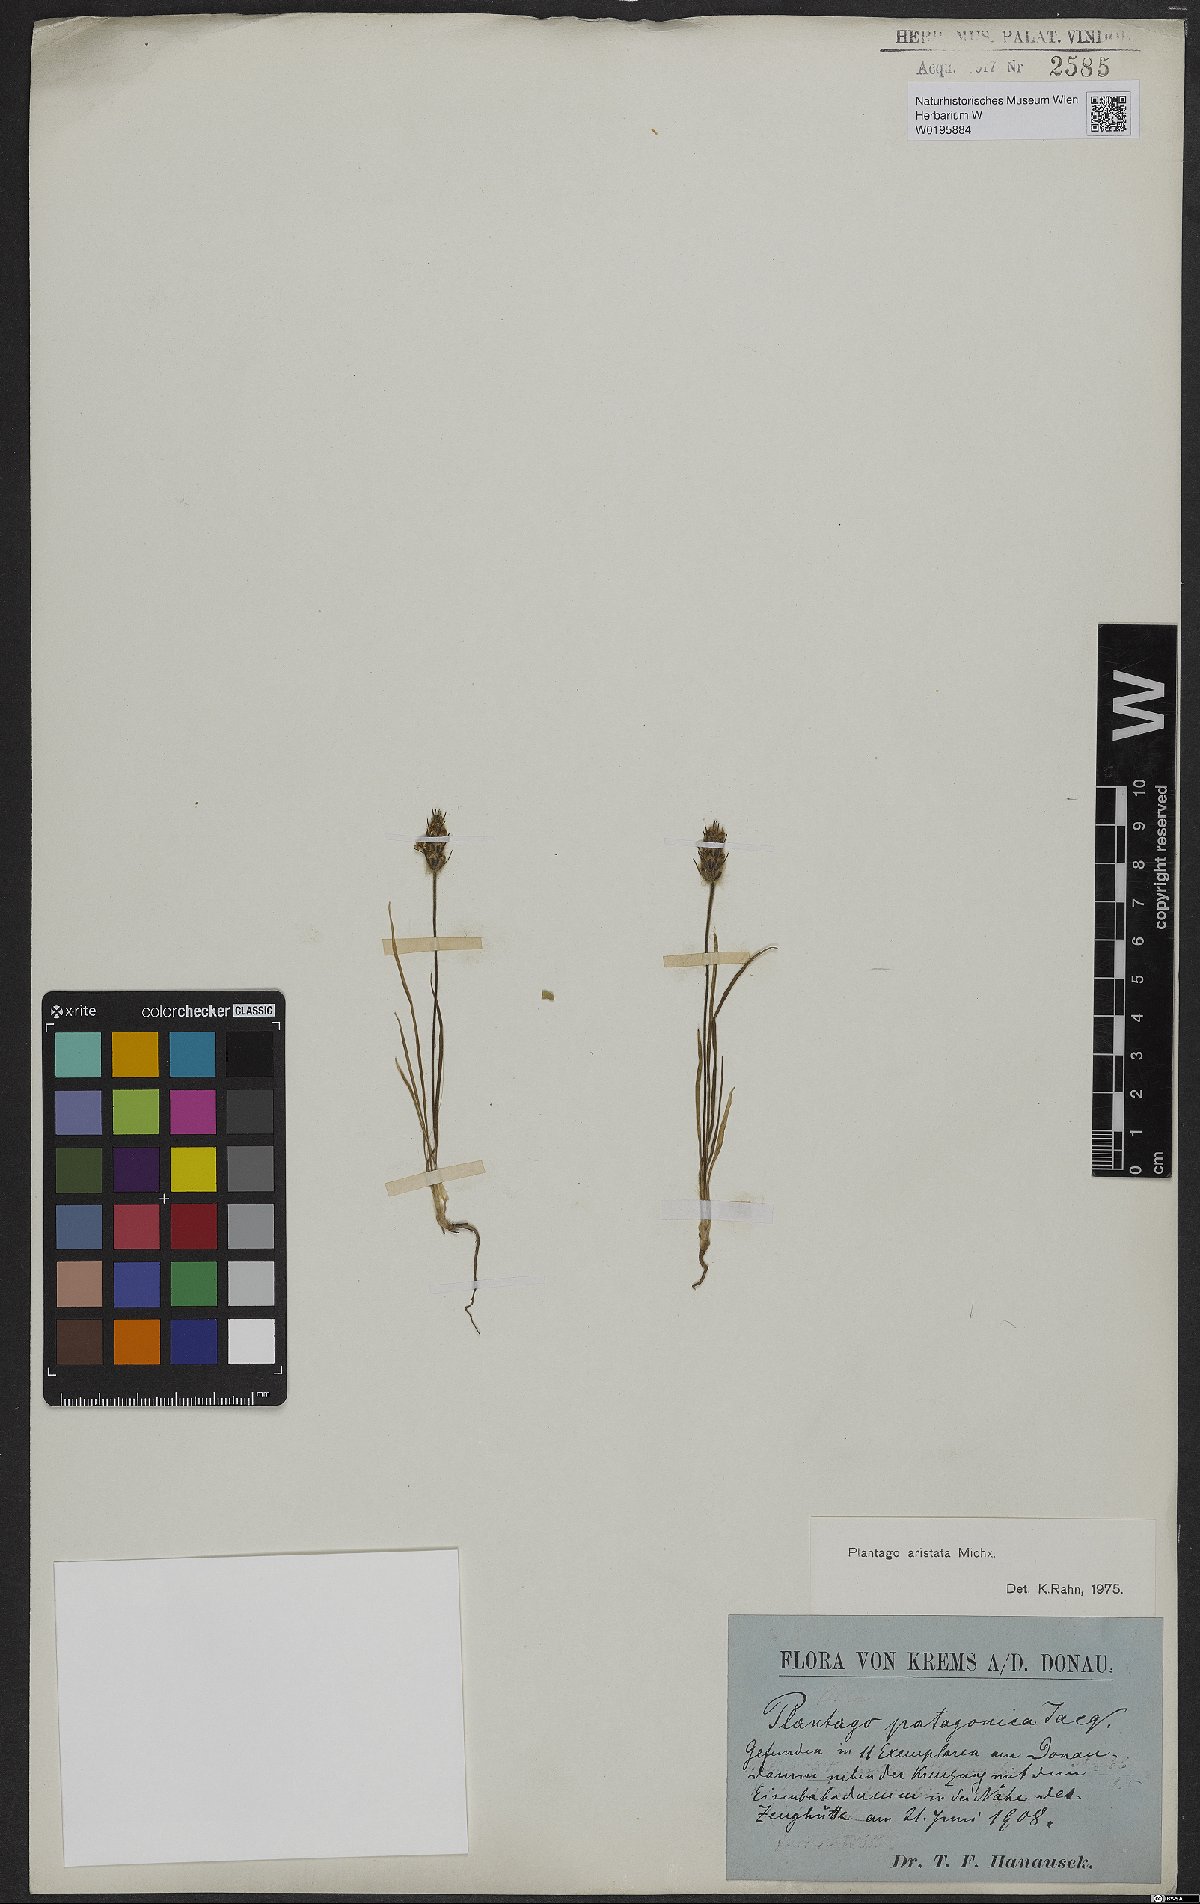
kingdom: Plantae
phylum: Tracheophyta
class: Magnoliopsida
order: Lamiales
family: Plantaginaceae
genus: Plantago
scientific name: Plantago aristata
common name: Bracted plantain
